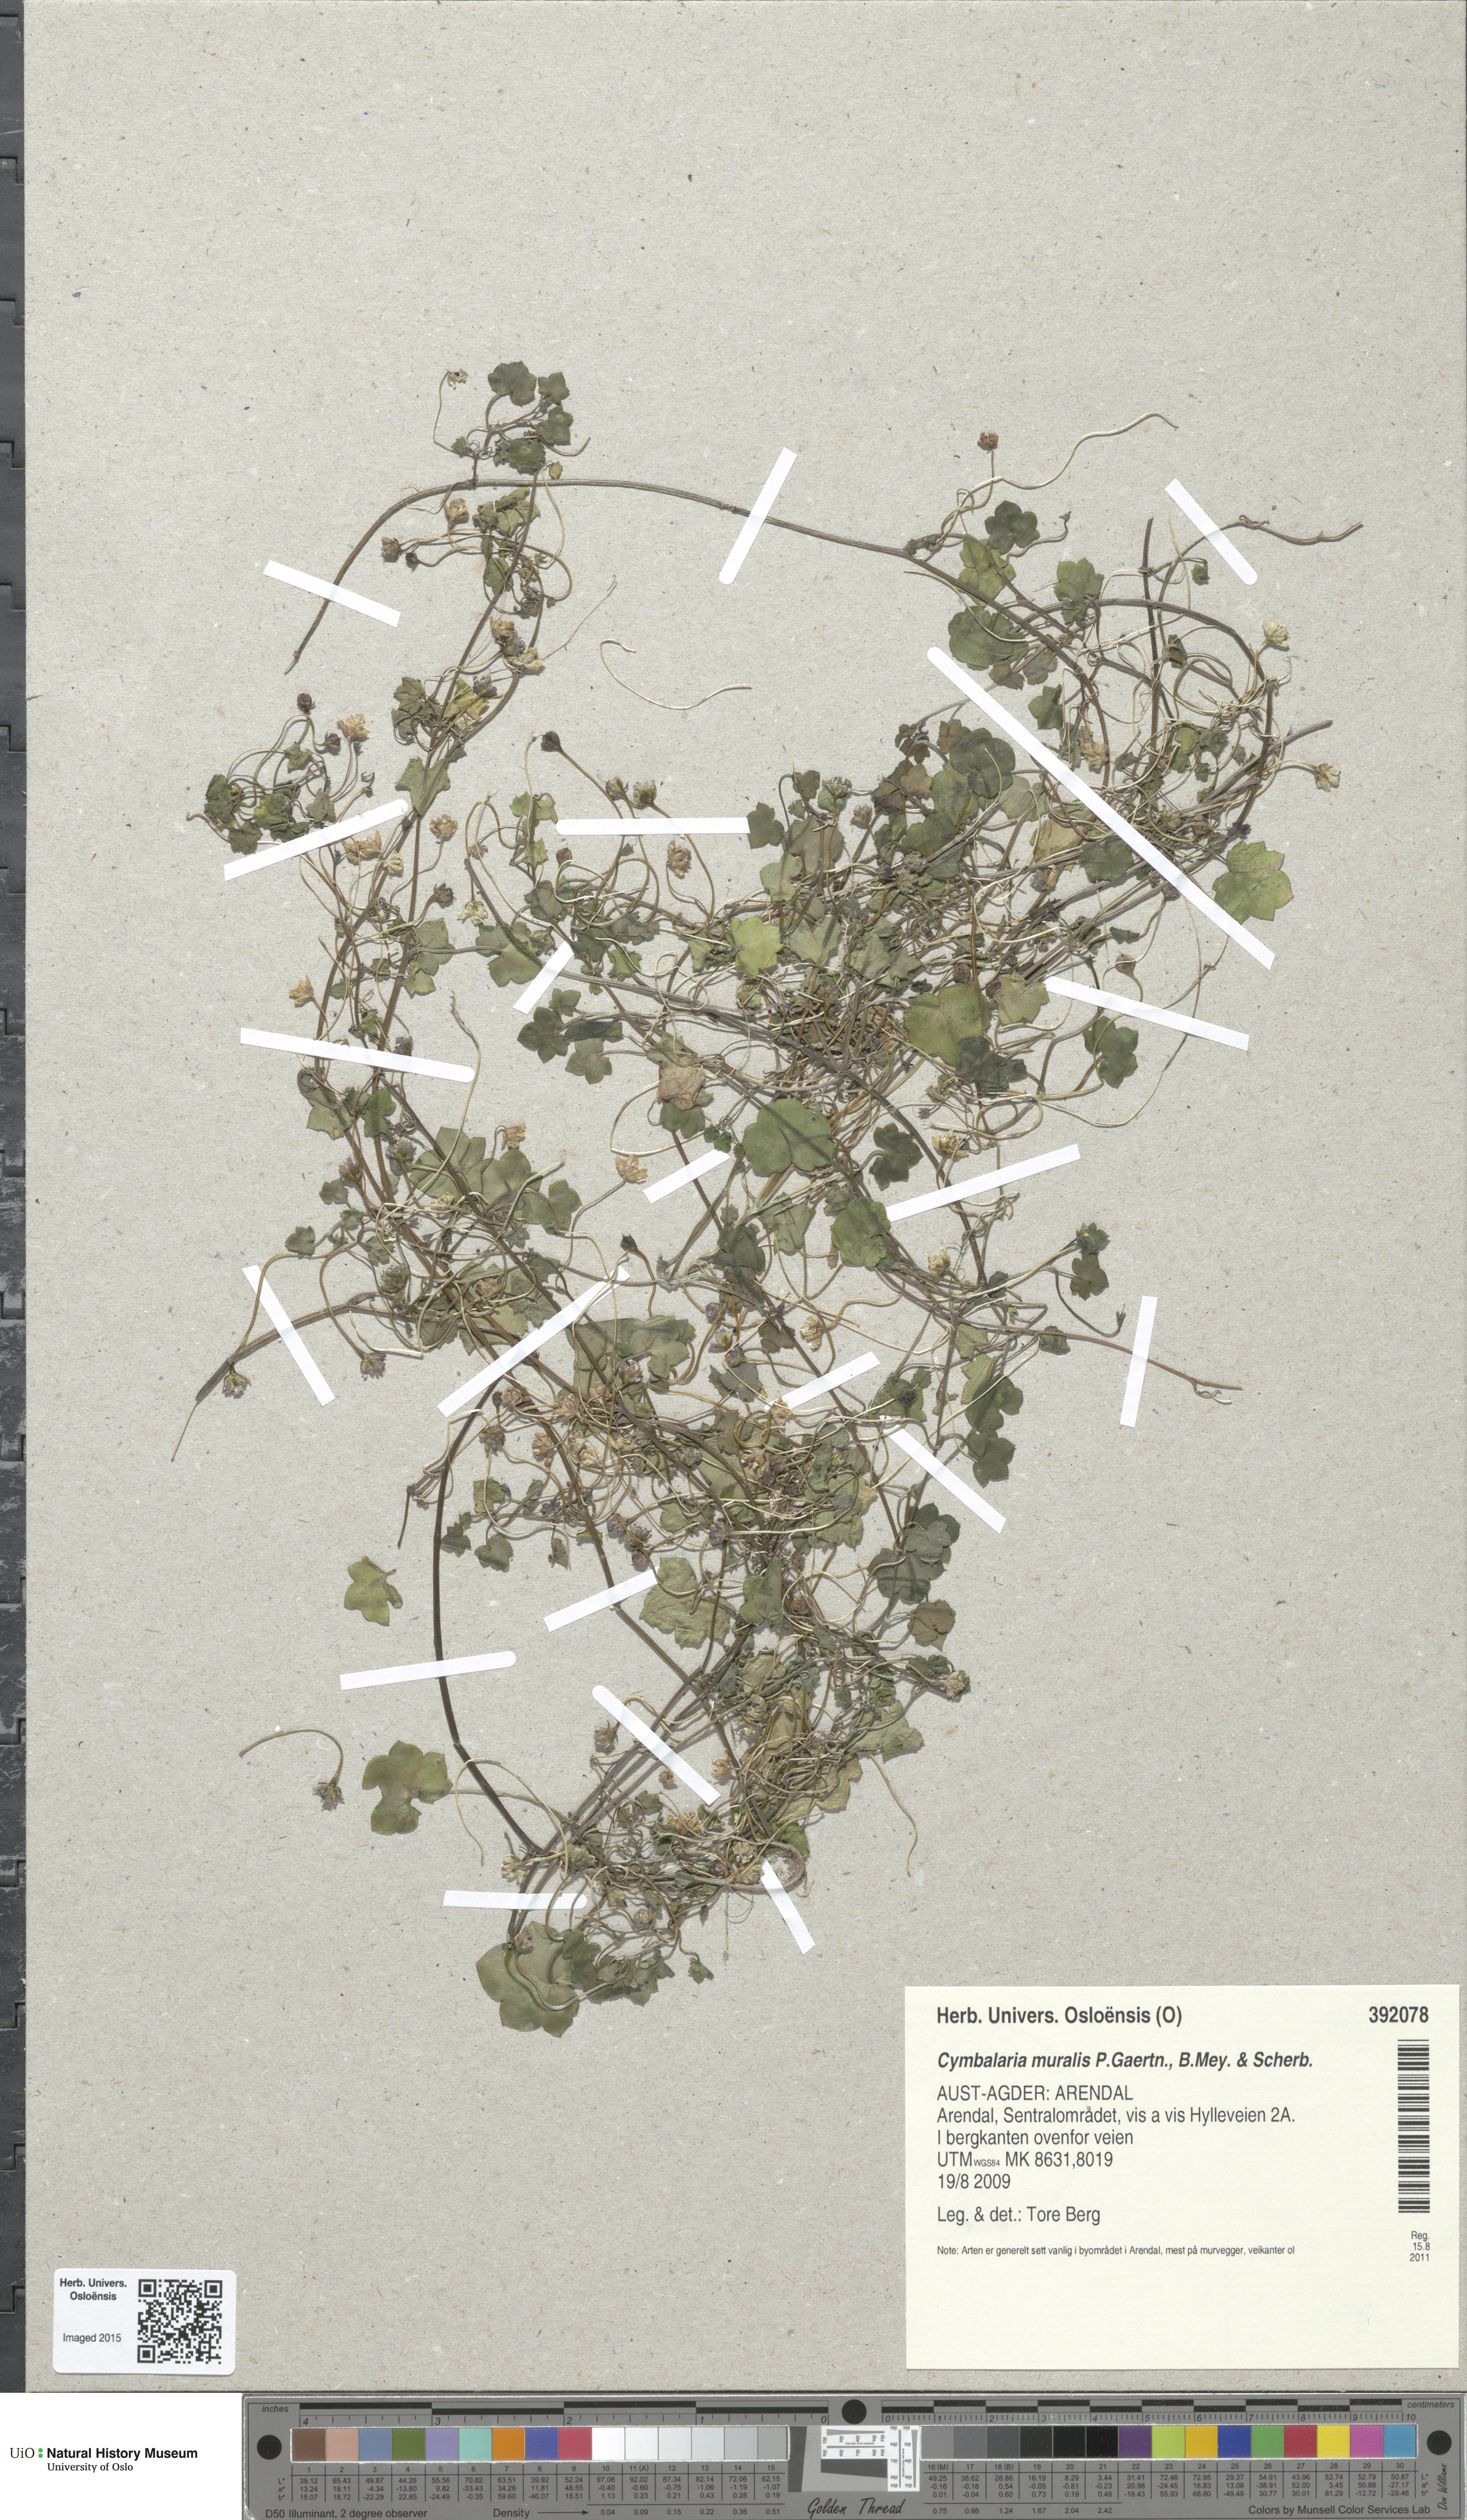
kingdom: Plantae
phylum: Tracheophyta
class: Magnoliopsida
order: Lamiales
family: Plantaginaceae
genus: Cymbalaria
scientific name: Cymbalaria muralis
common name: Ivy-leaved toadflax
